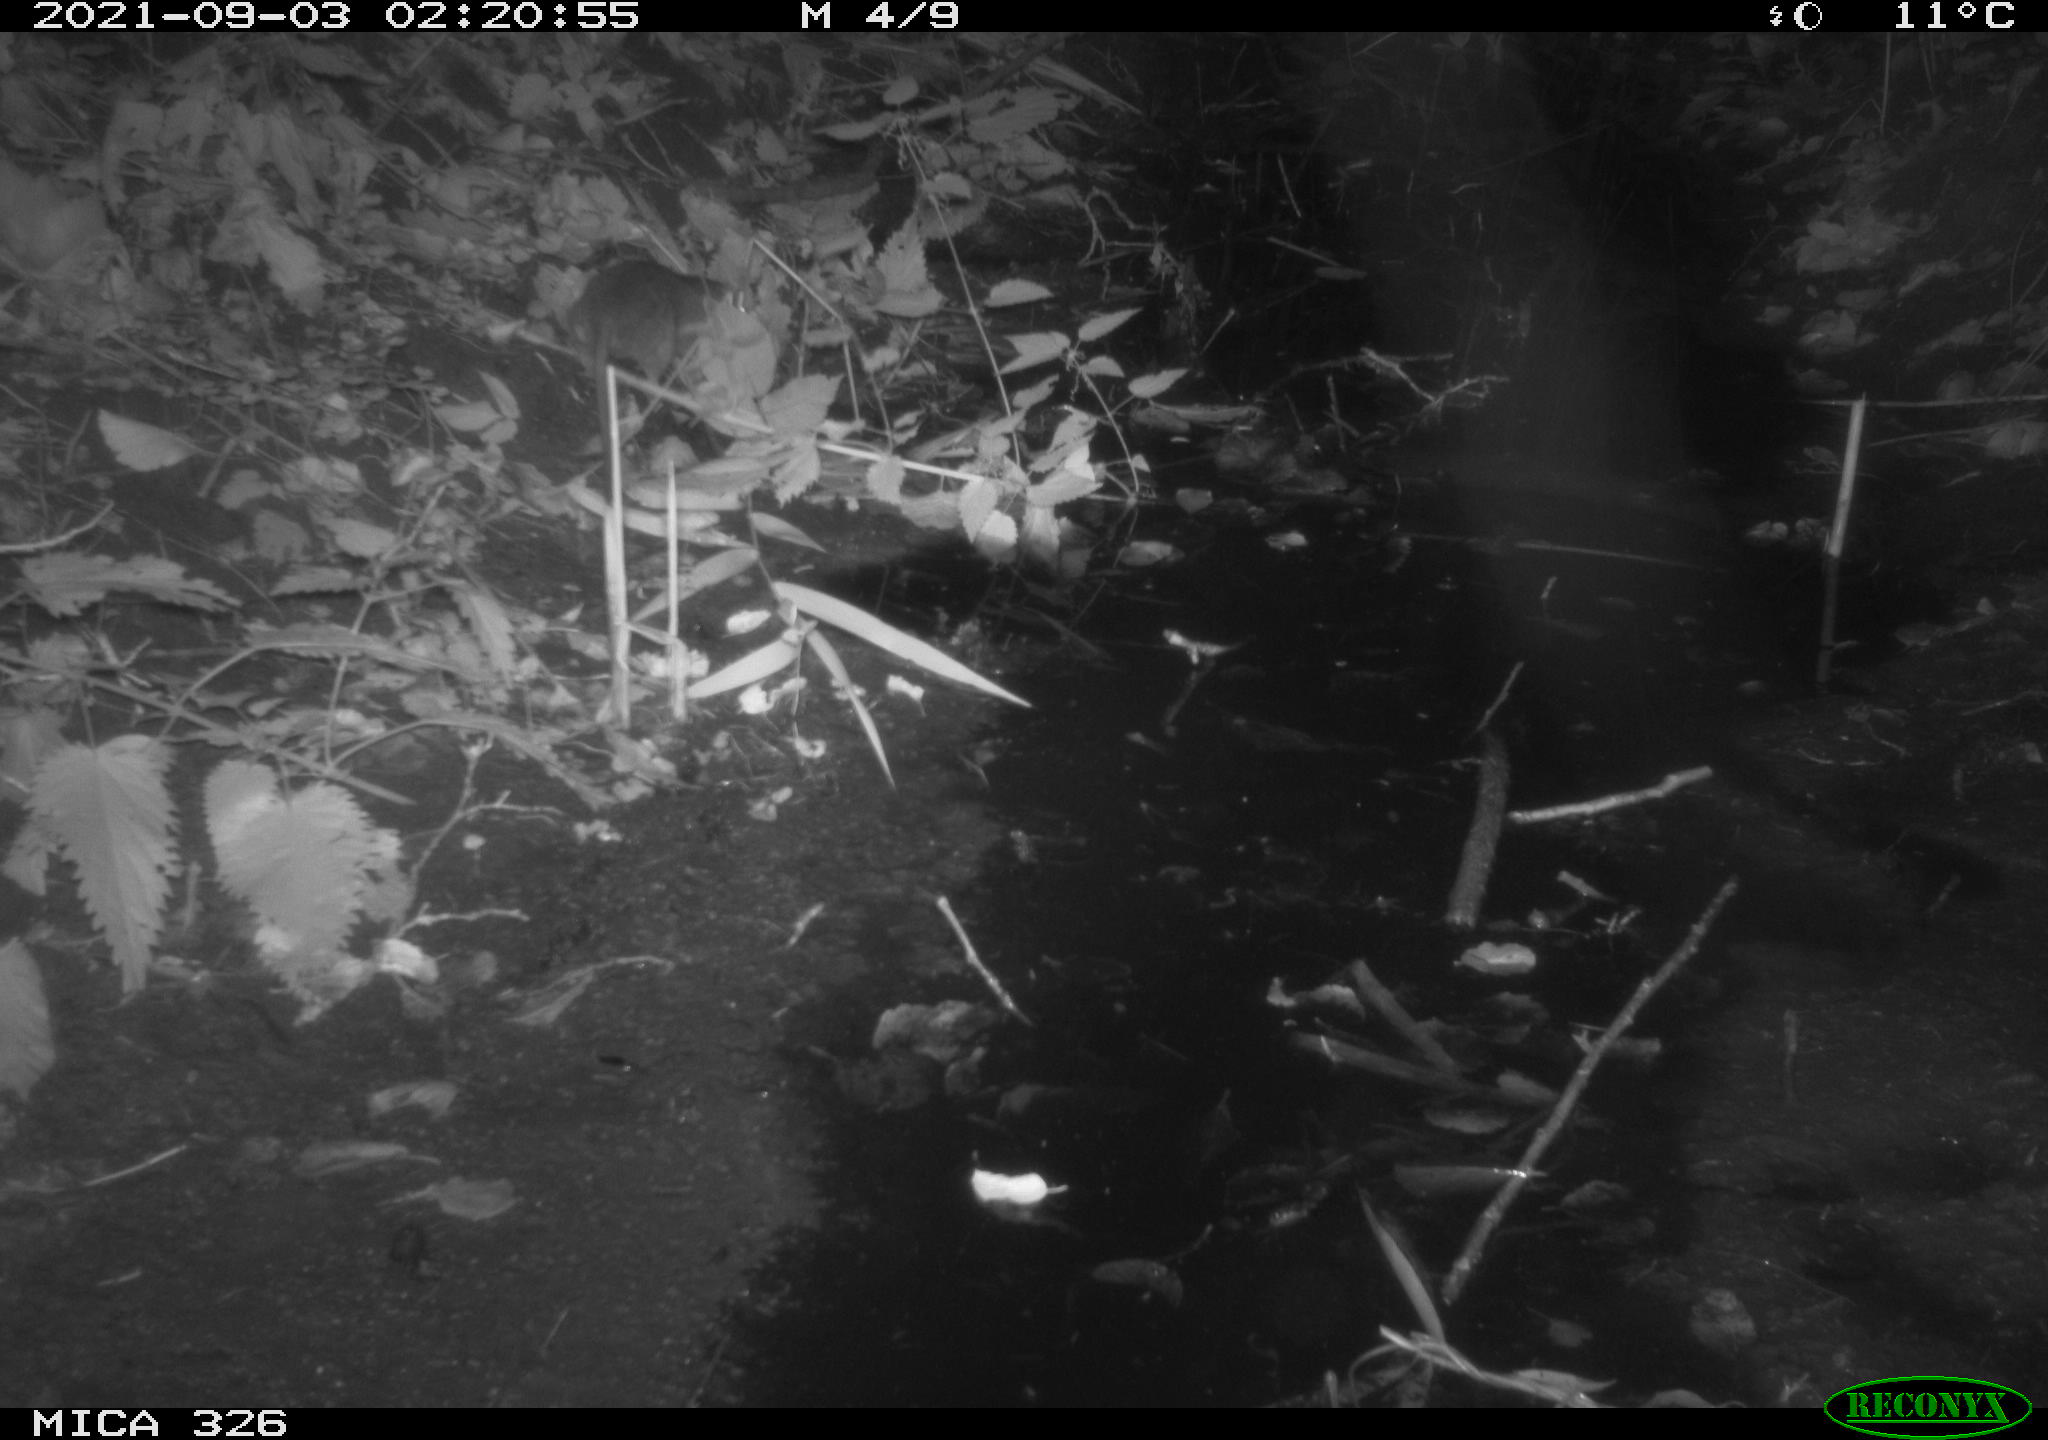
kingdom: Animalia
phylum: Chordata
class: Mammalia
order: Rodentia
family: Muridae
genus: Rattus
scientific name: Rattus norvegicus
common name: Brown rat
